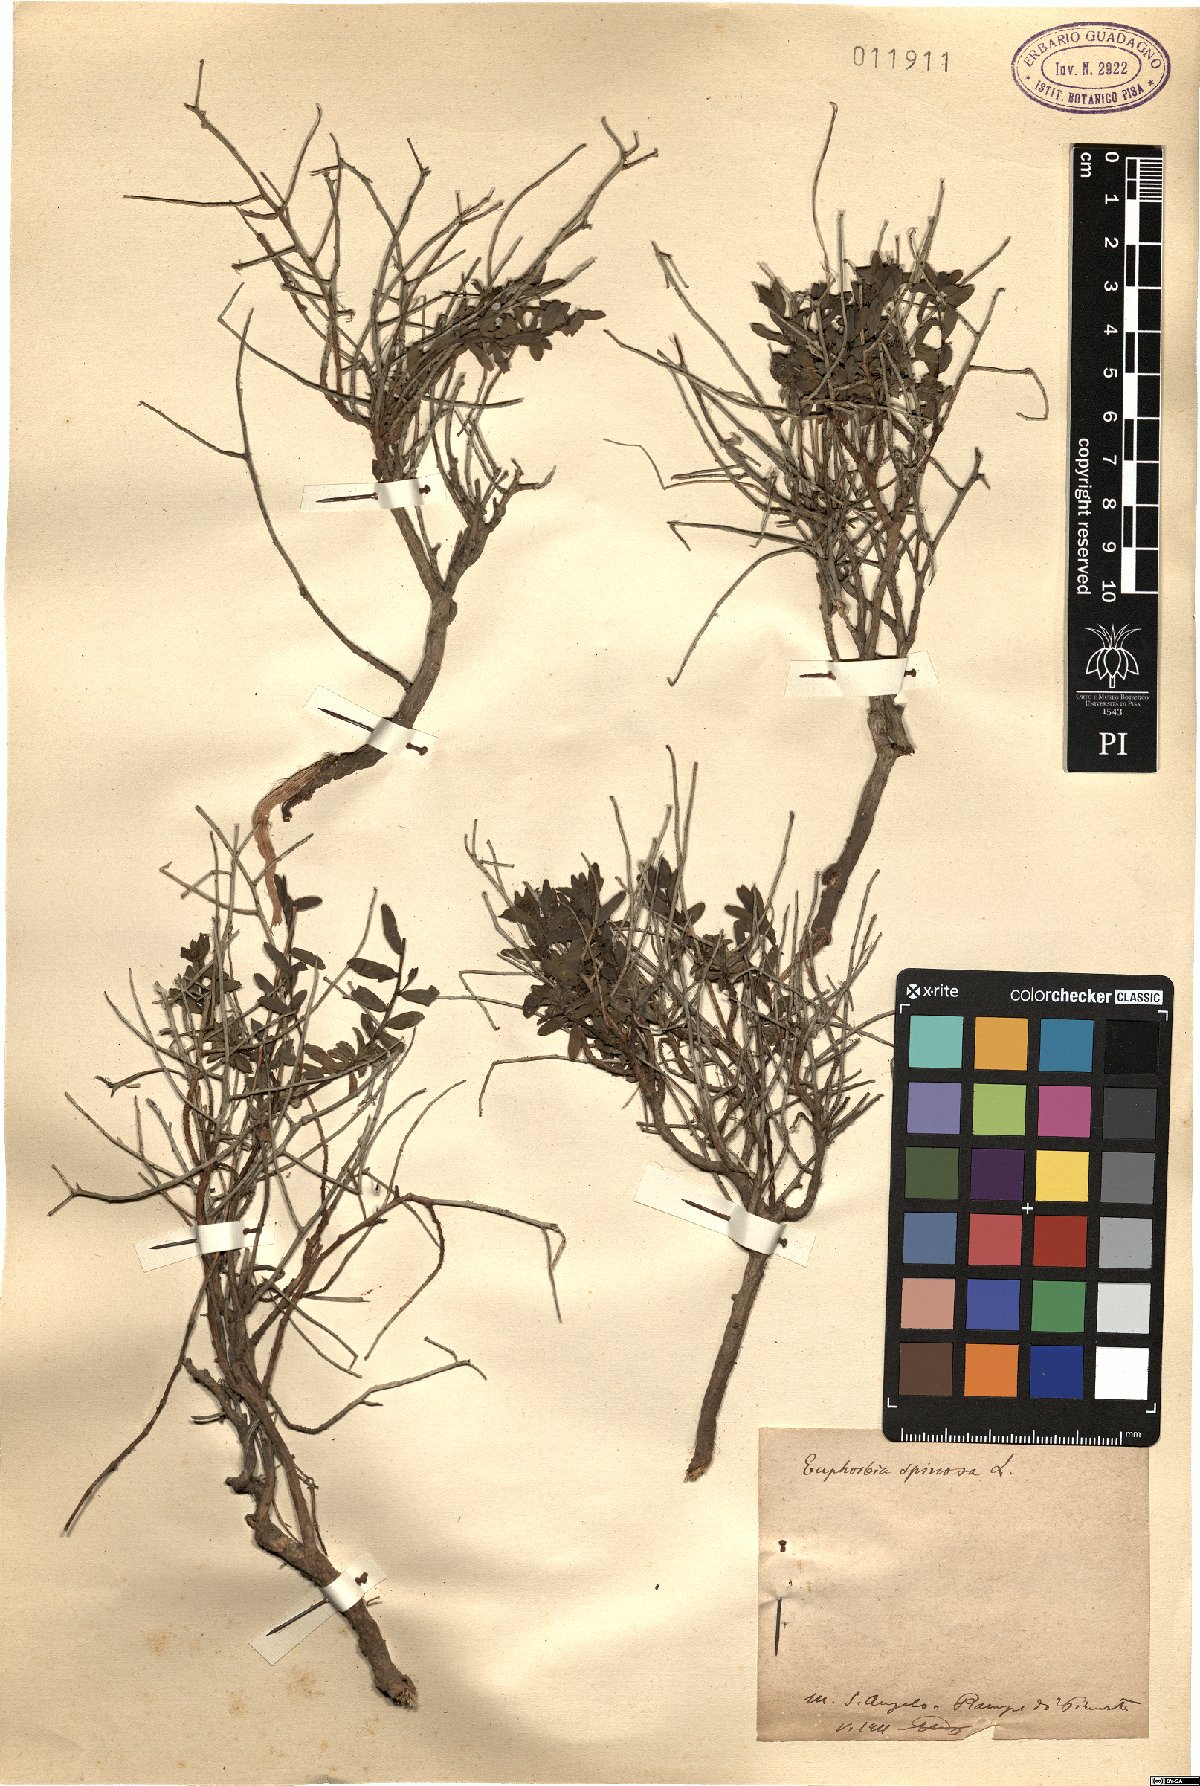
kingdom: Plantae
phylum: Tracheophyta
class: Magnoliopsida
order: Malpighiales
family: Euphorbiaceae
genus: Euphorbia
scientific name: Euphorbia spinosa
